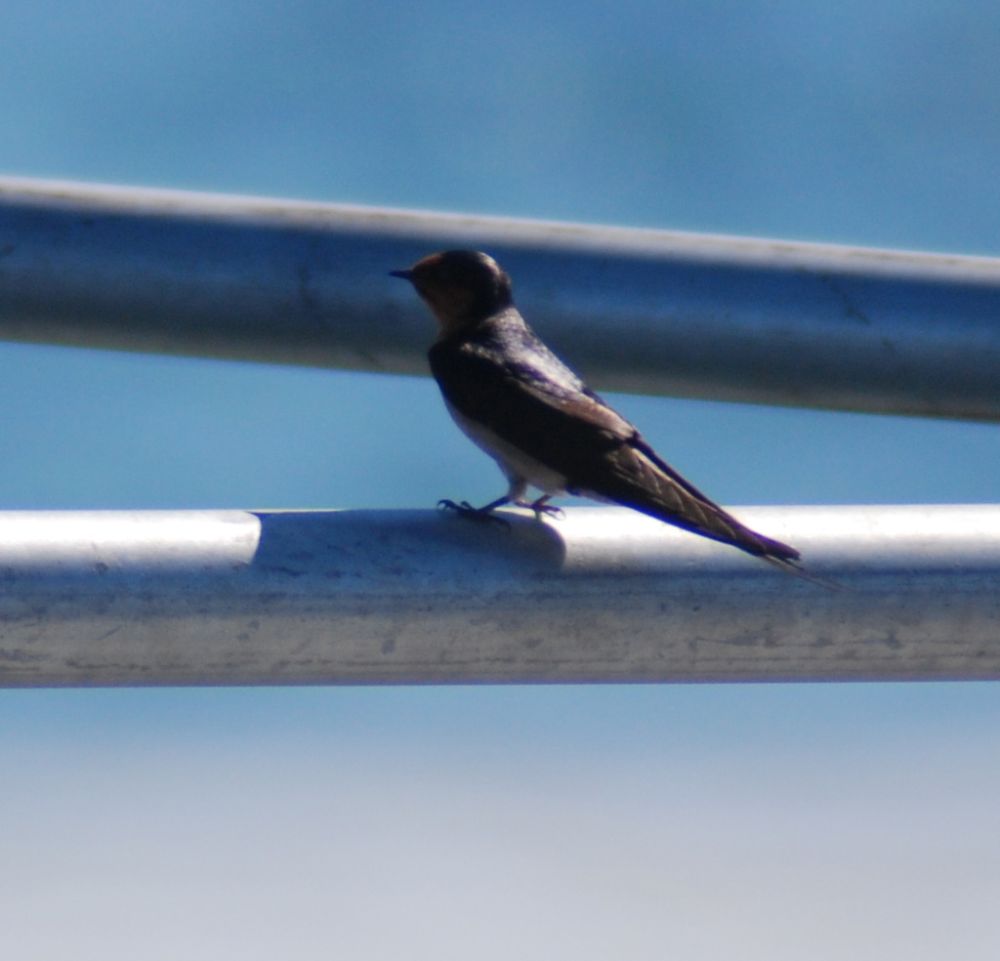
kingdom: Animalia
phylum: Chordata
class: Aves
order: Passeriformes
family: Hirundinidae
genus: Hirundo
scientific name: Hirundo neoxena
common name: Welcome swallow
